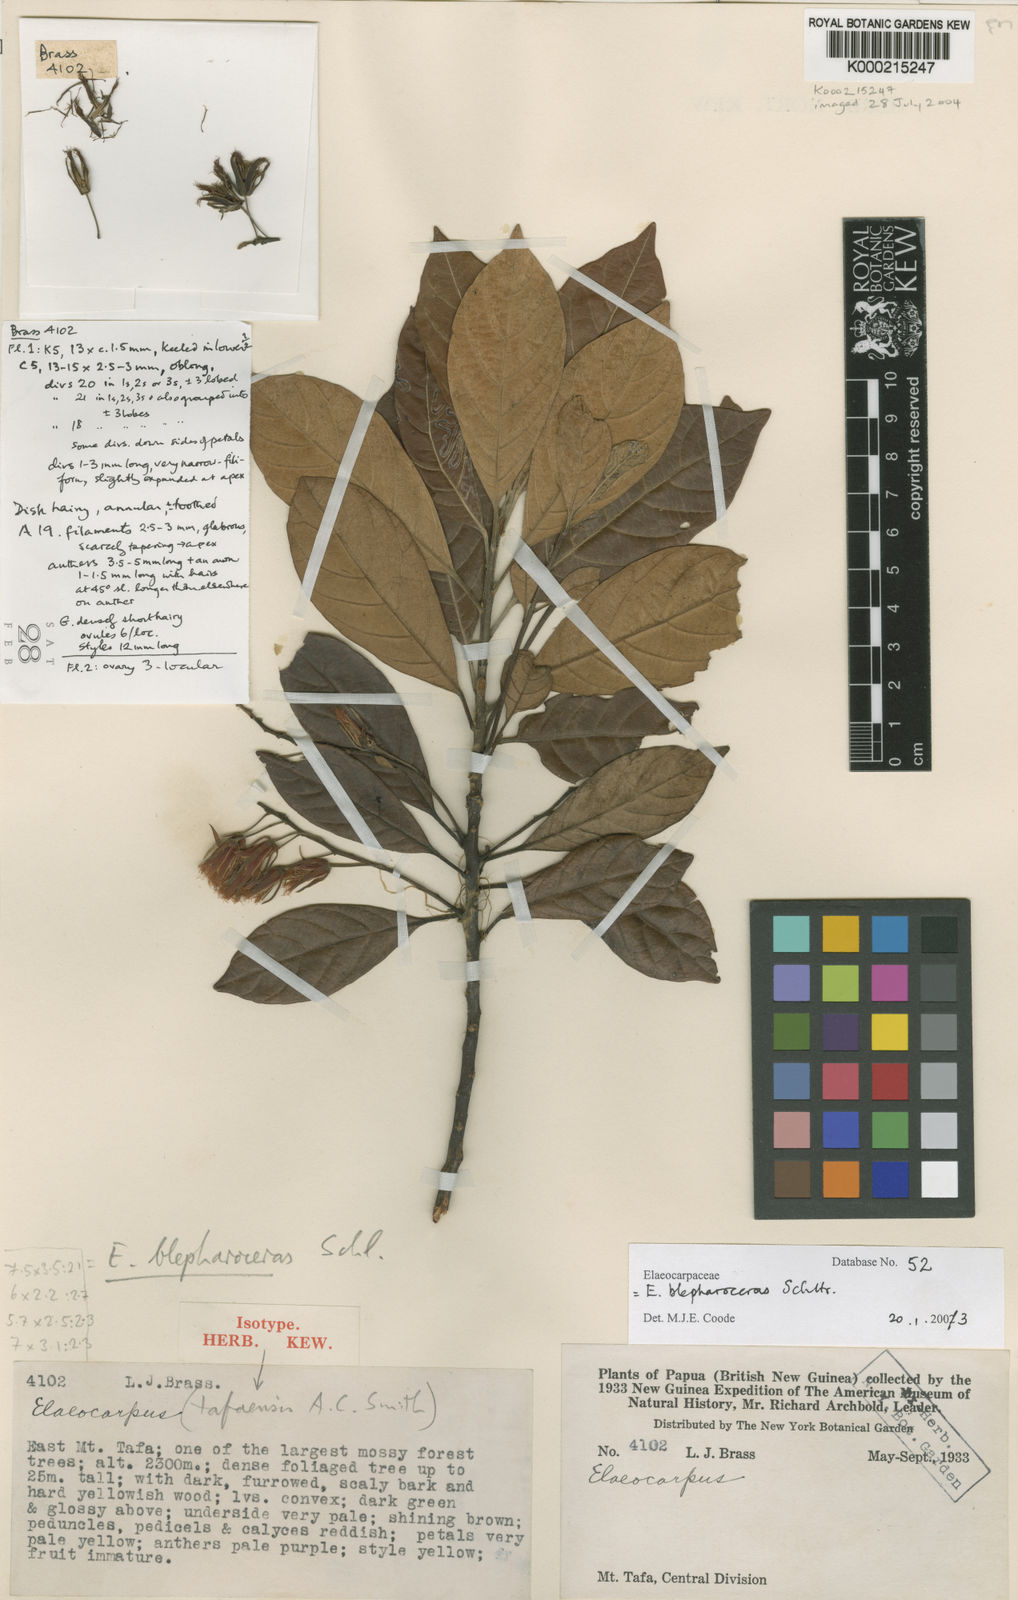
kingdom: Plantae
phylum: Tracheophyta
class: Magnoliopsida
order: Oxalidales
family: Elaeocarpaceae
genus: Elaeocarpus
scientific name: Elaeocarpus
